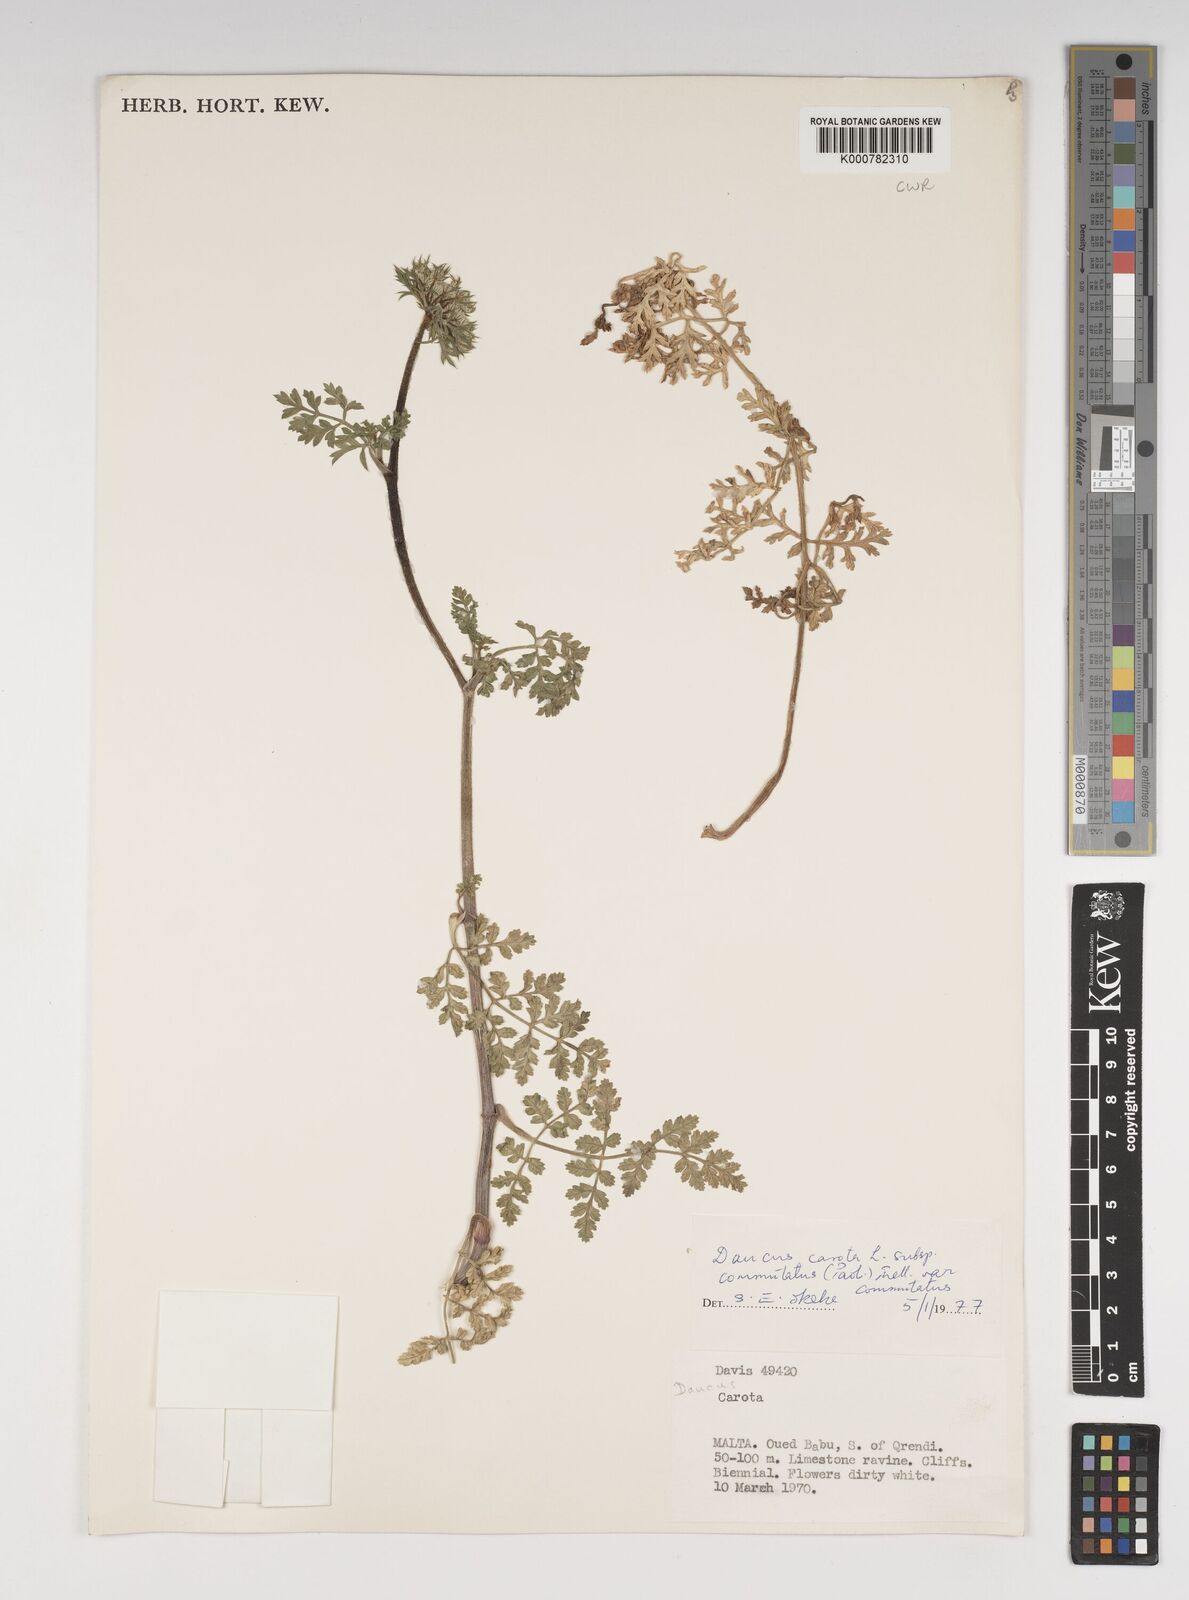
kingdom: Plantae
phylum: Tracheophyta
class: Magnoliopsida
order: Apiales
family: Apiaceae
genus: Daucus
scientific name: Daucus carota
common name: Wild carrot
